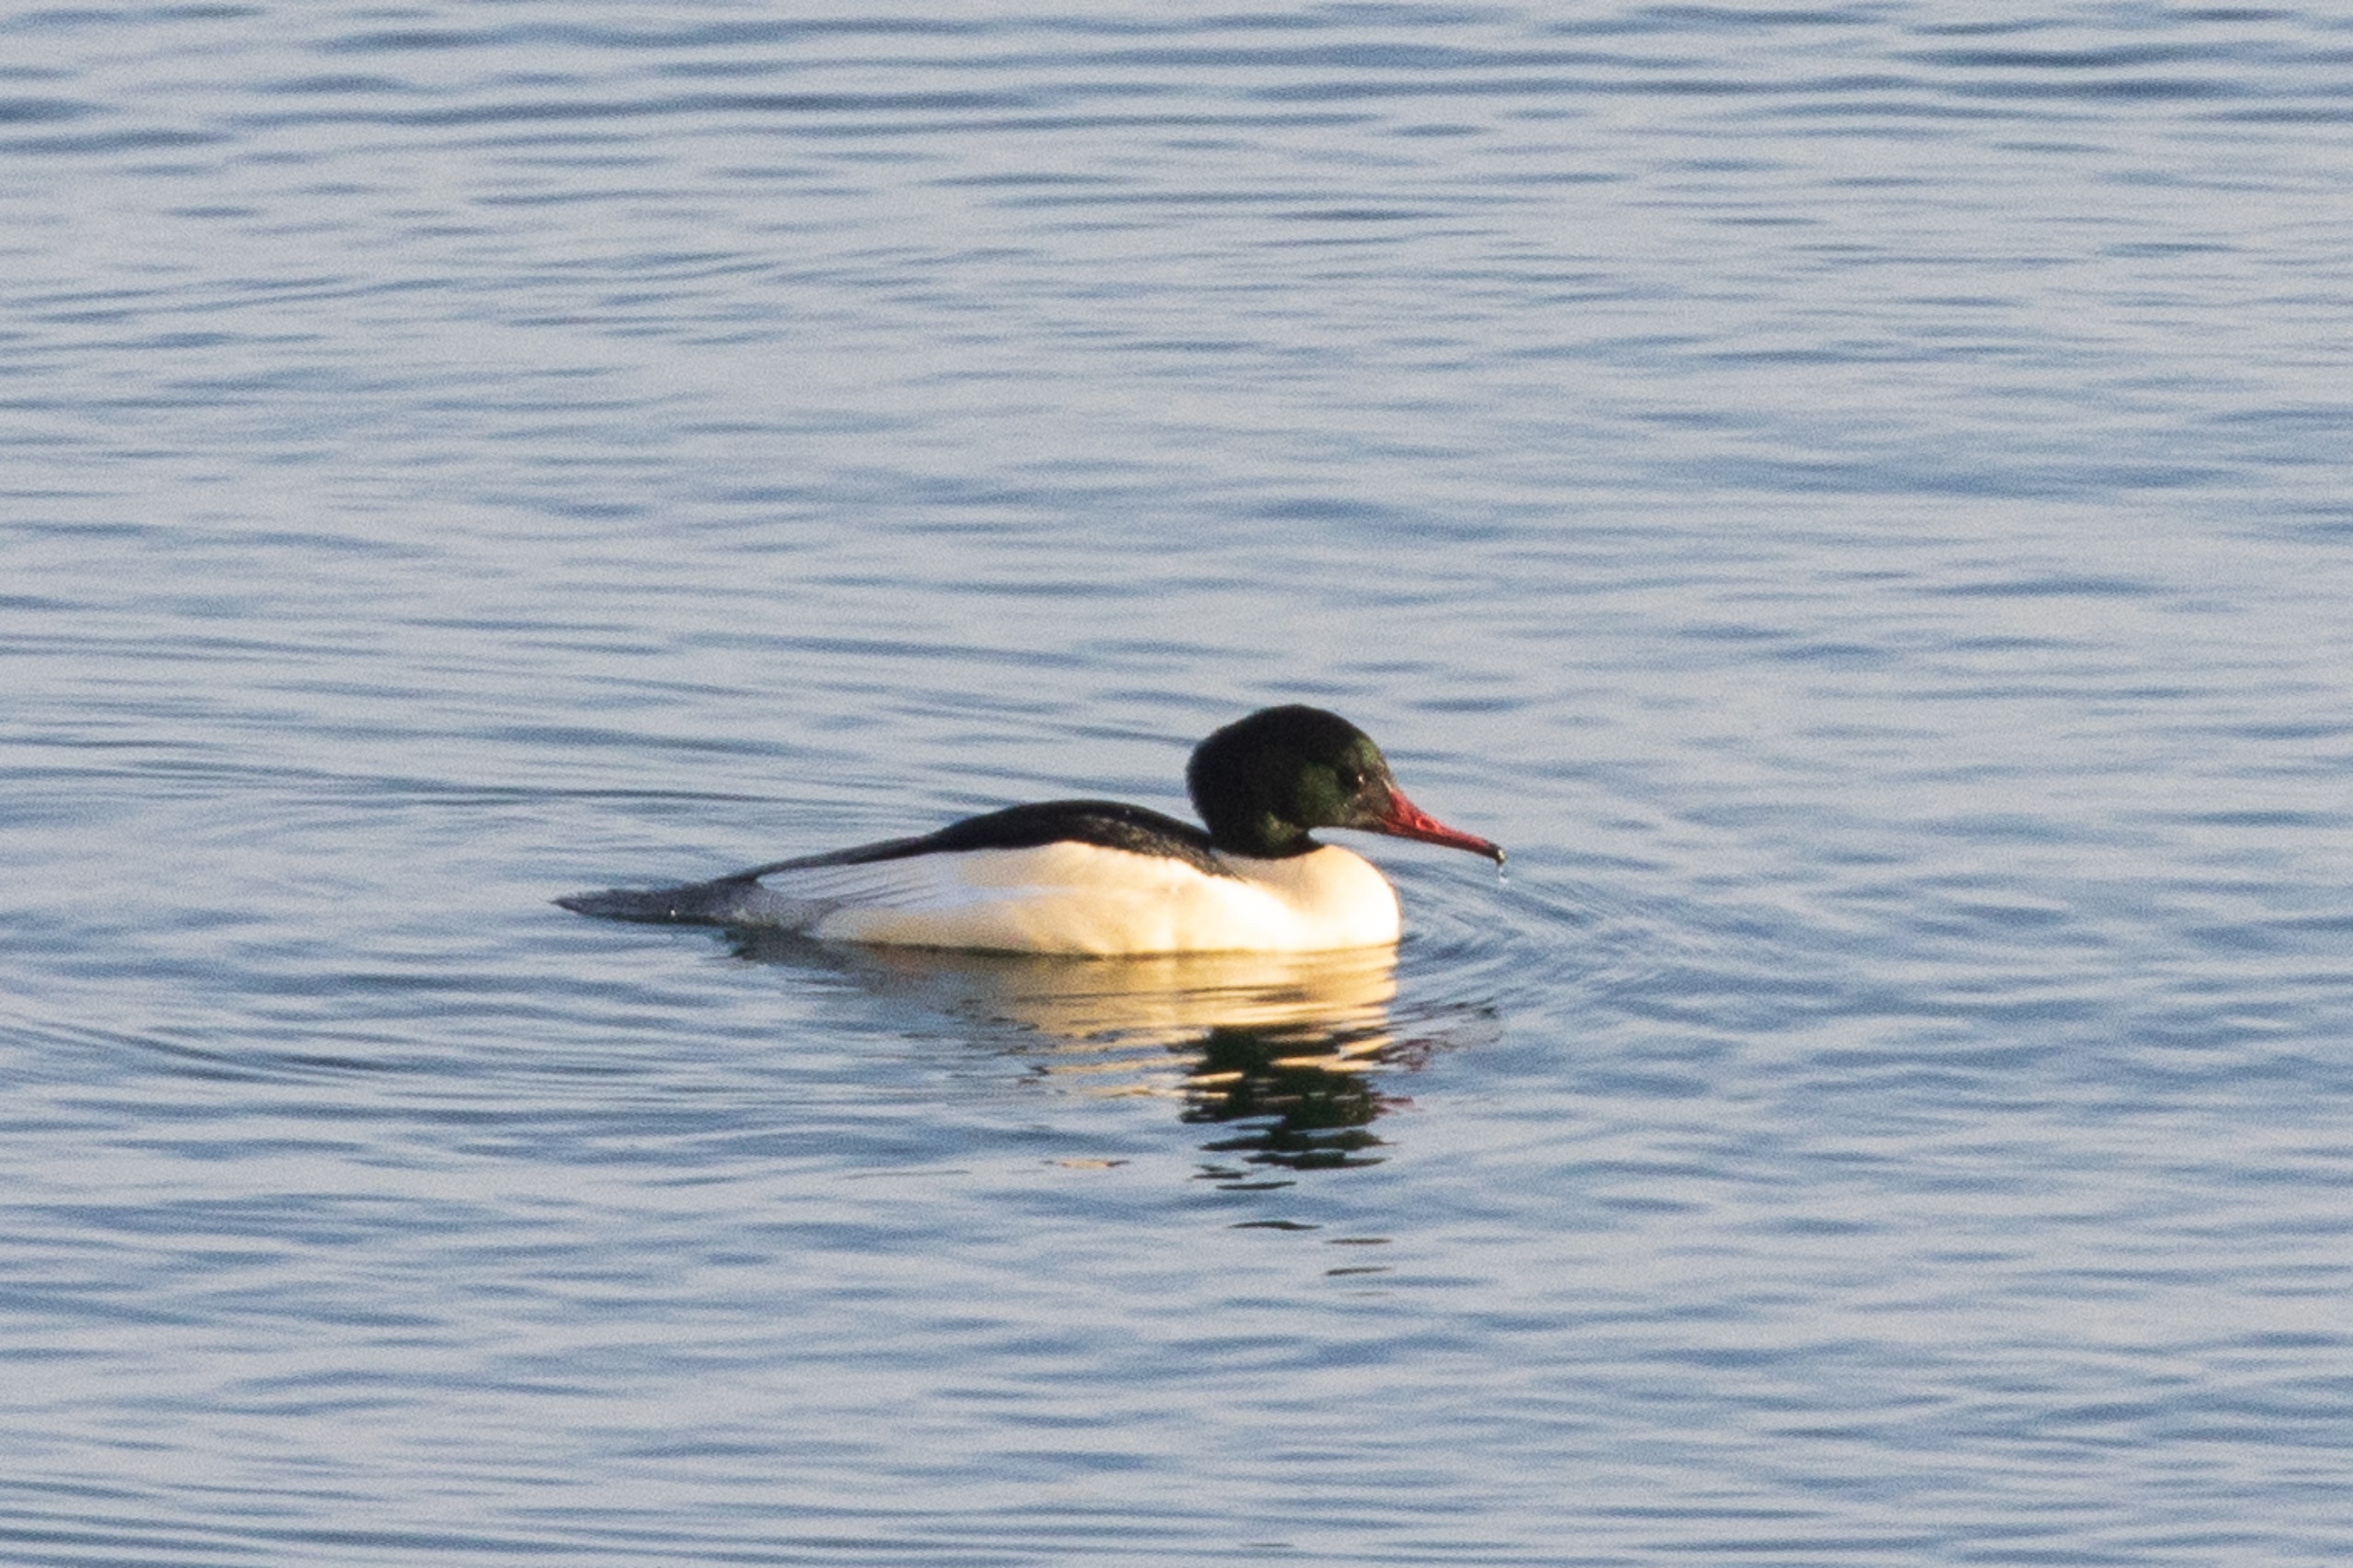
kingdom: Animalia
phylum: Chordata
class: Aves
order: Anseriformes
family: Anatidae
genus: Mergus
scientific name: Mergus merganser
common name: Stor skallesluger
